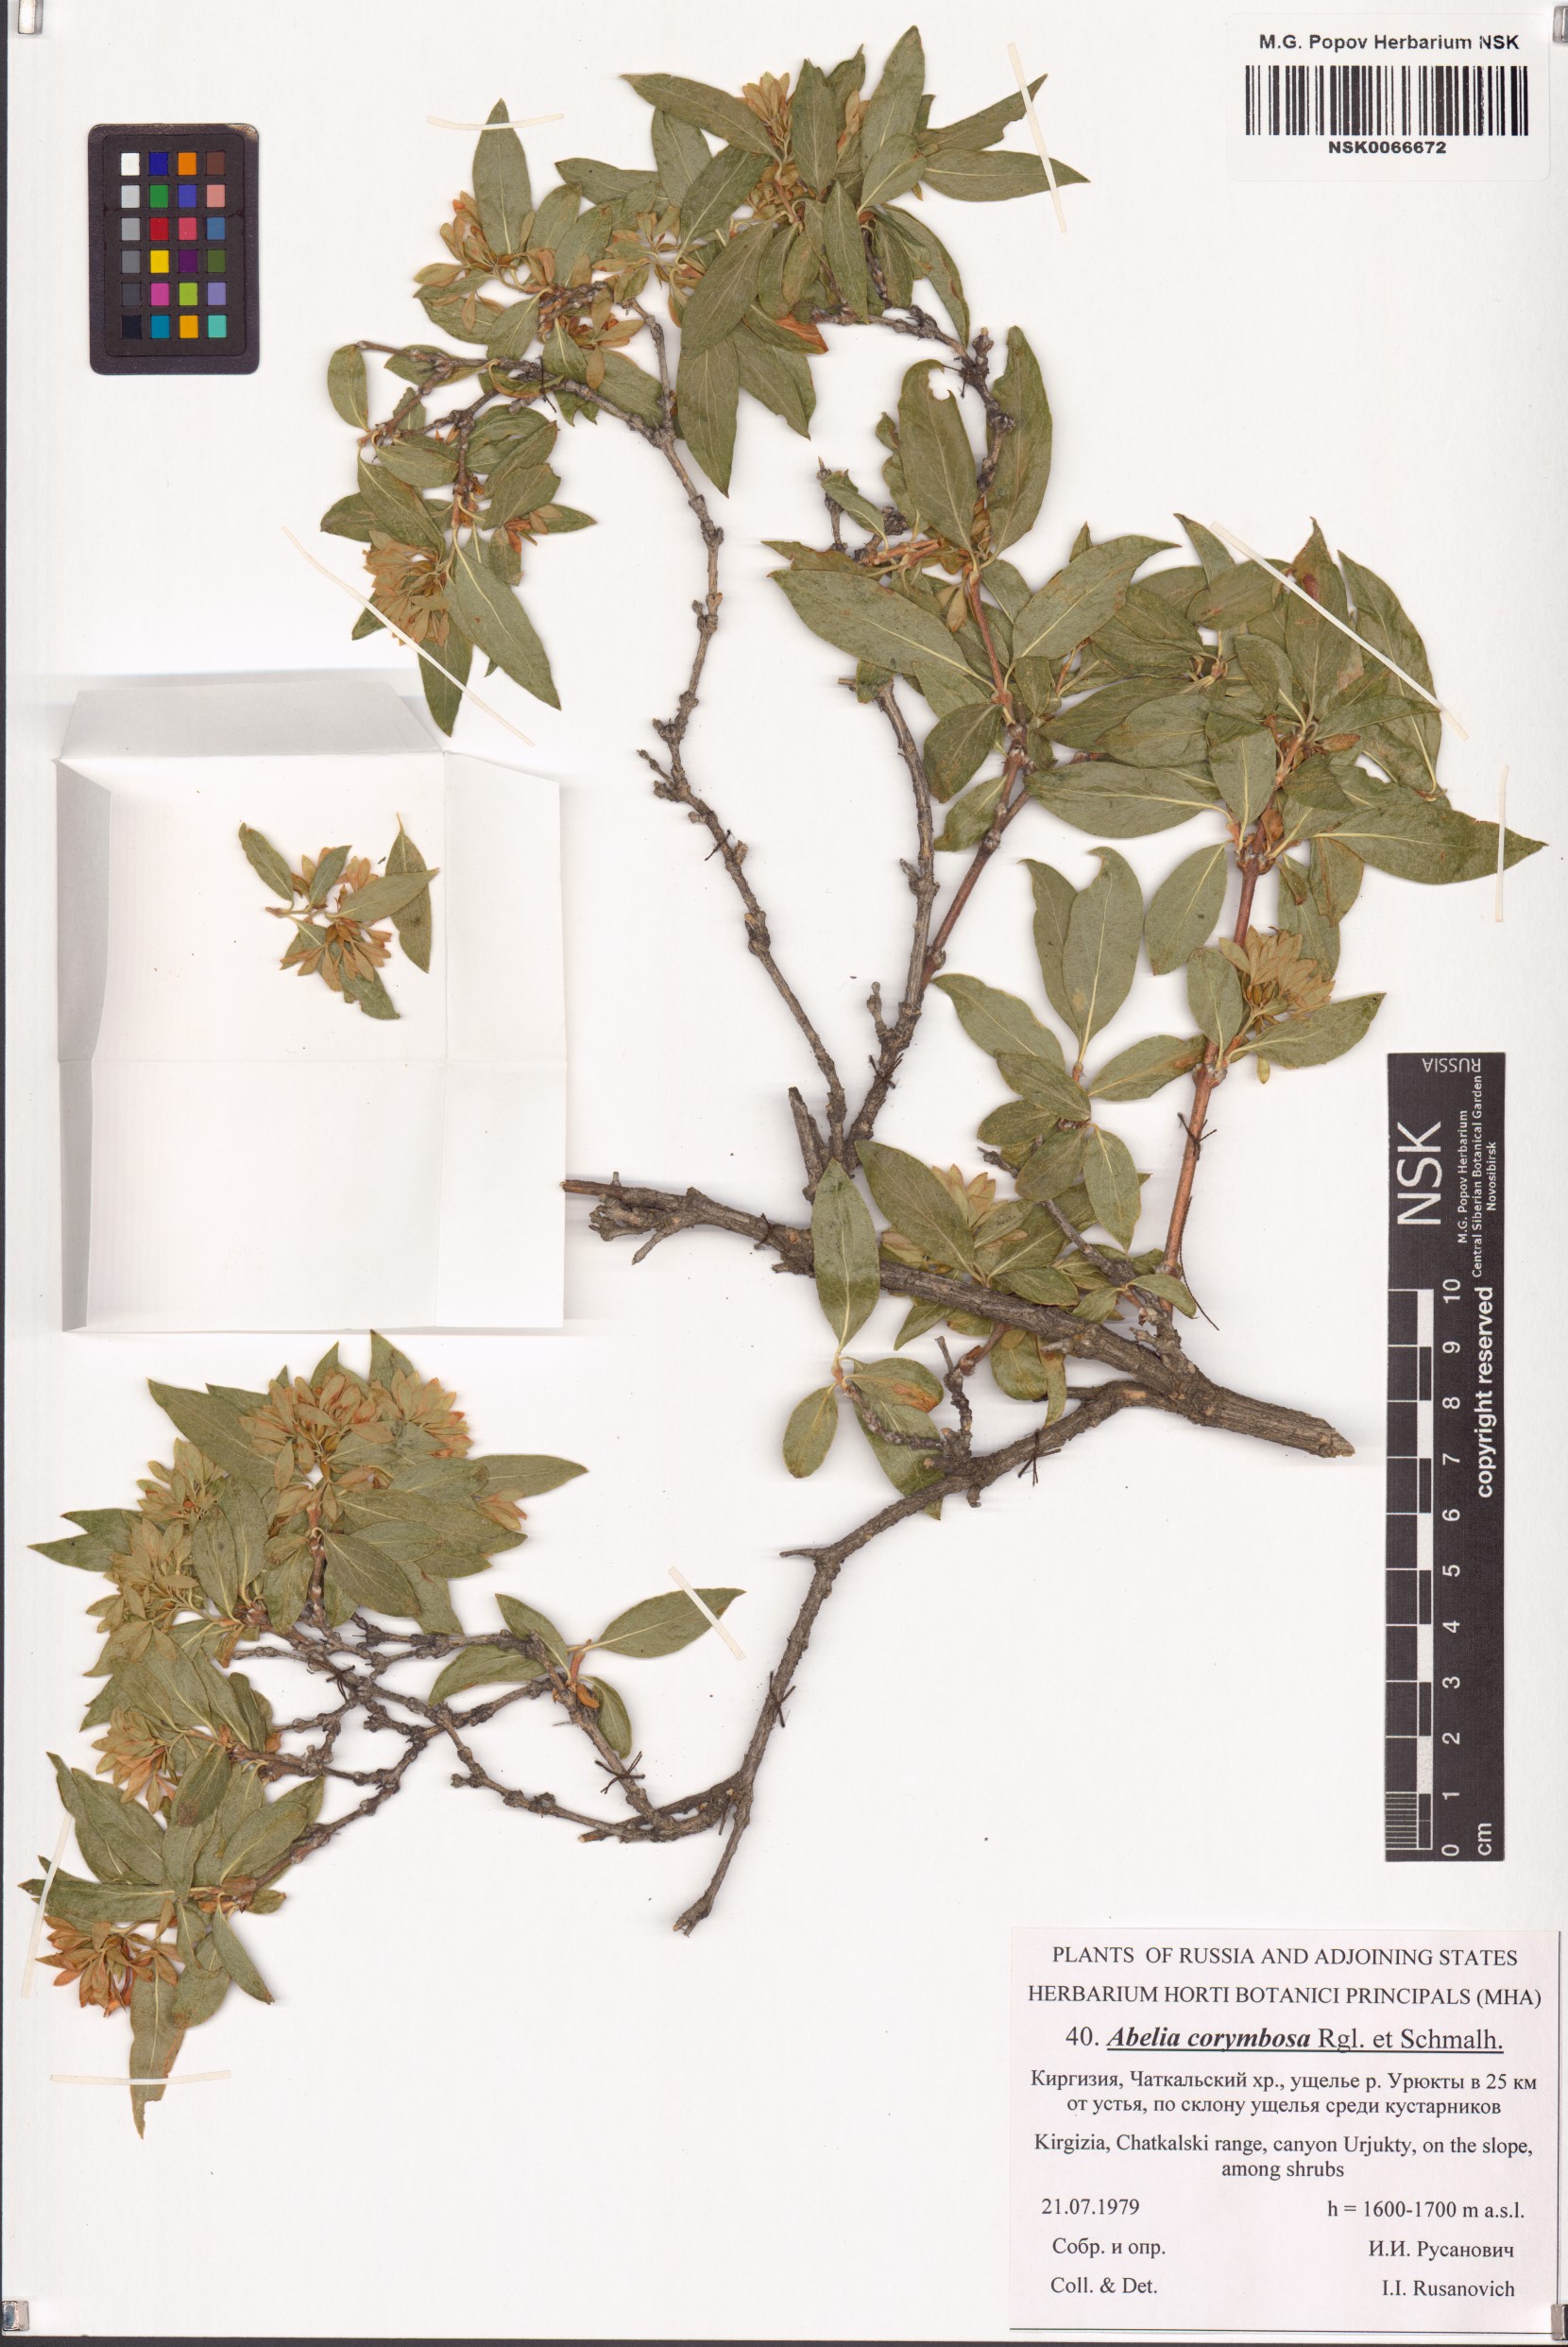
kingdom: Plantae
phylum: Tracheophyta
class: Magnoliopsida
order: Dipsacales
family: Caprifoliaceae
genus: Zabelia
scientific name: Zabelia corymbosa
